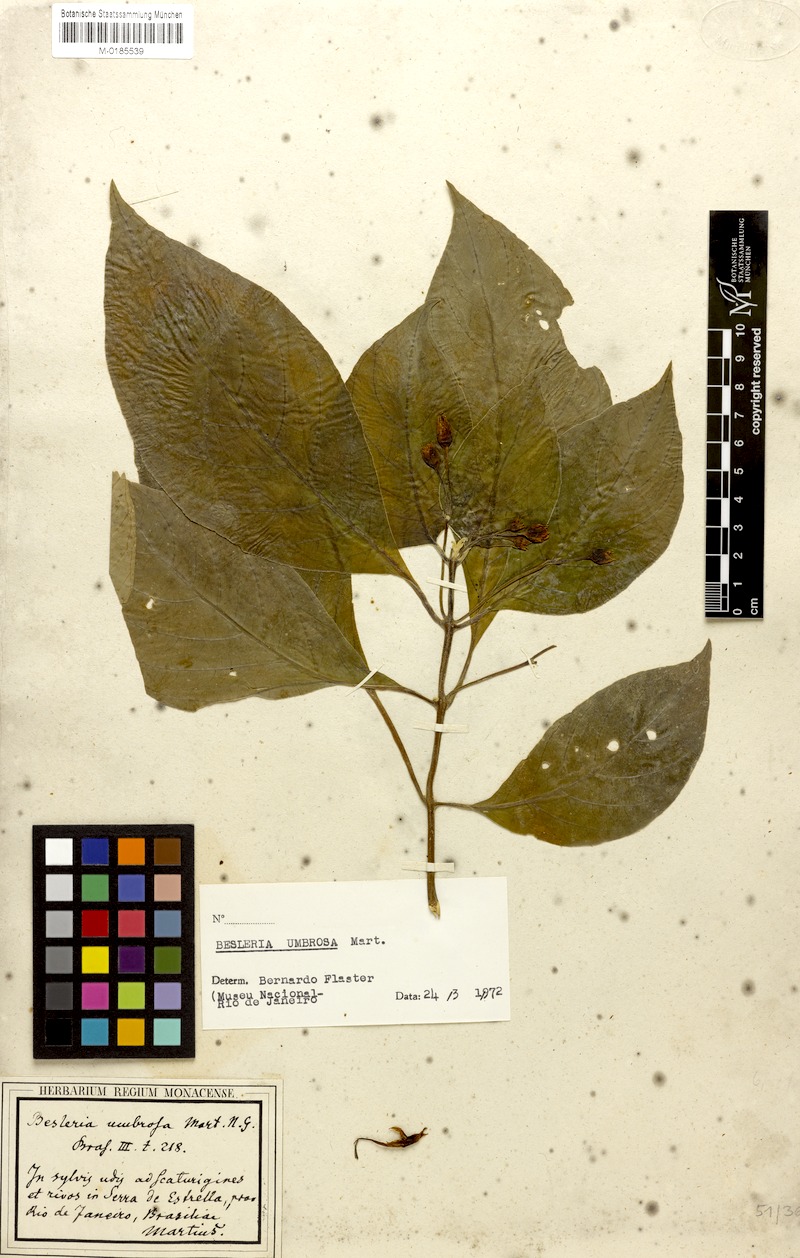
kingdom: Plantae
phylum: Tracheophyta
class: Magnoliopsida
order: Lamiales
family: Gesneriaceae
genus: Besleria
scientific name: Besleria umbrosa
